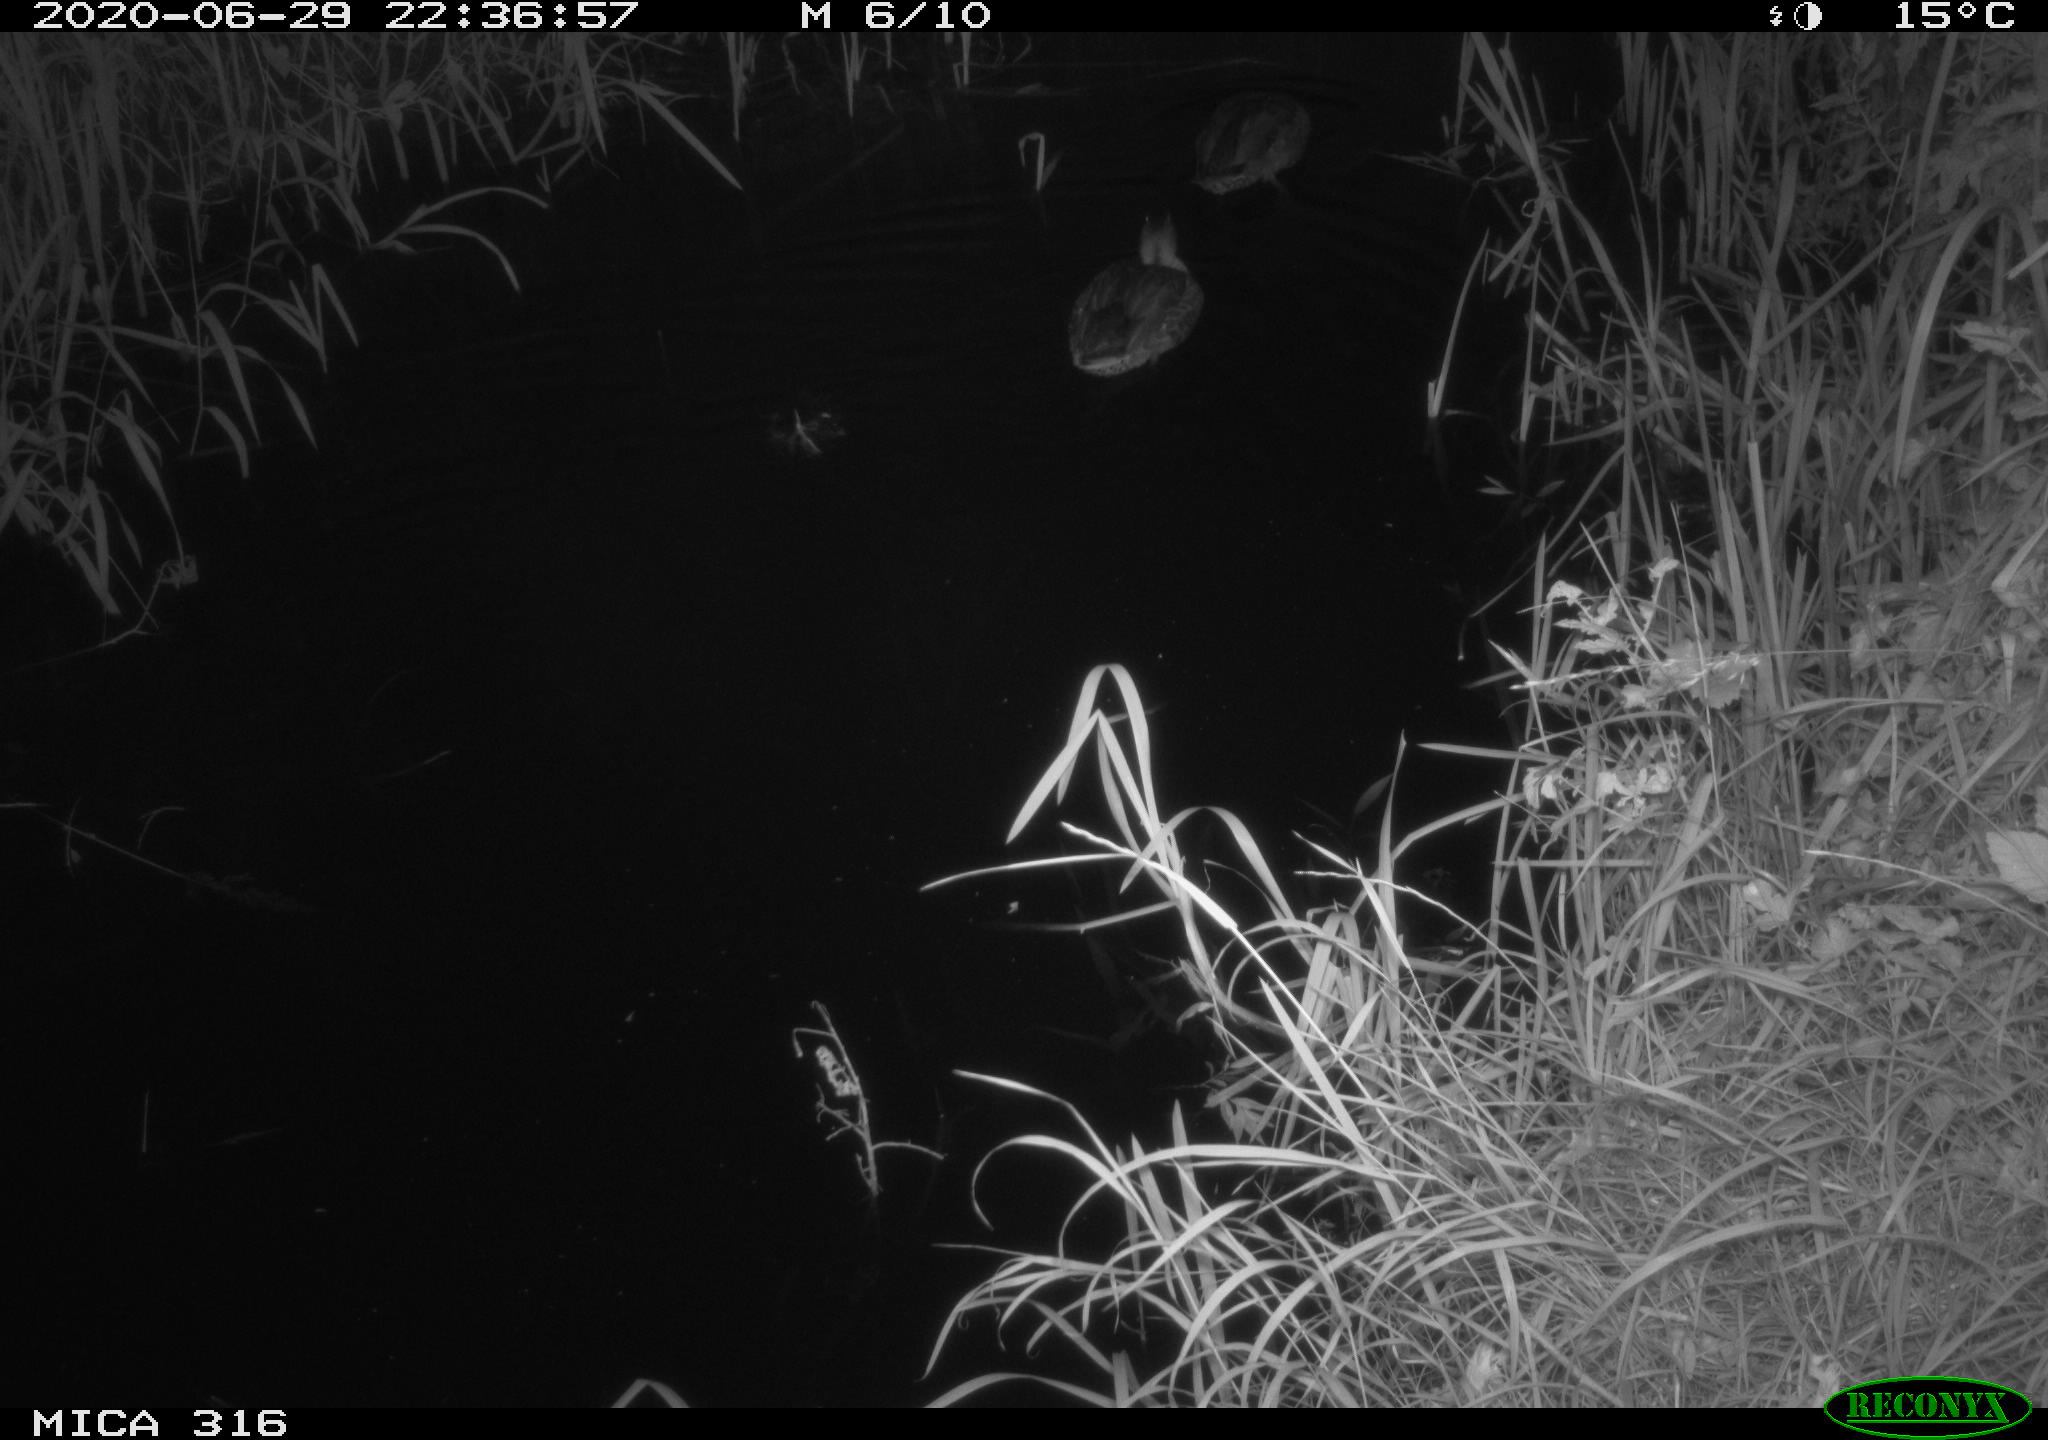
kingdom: Animalia
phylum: Chordata
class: Aves
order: Anseriformes
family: Anatidae
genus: Anas
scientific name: Anas platyrhynchos
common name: Mallard
